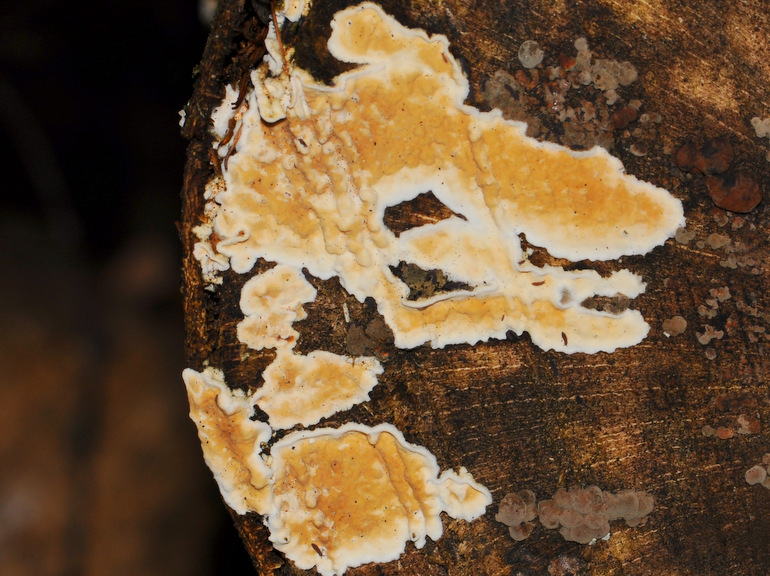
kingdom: Fungi
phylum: Basidiomycota
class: Agaricomycetes
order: Agaricales
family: Physalacriaceae
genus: Cylindrobasidium
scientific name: Cylindrobasidium evolvens
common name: sprækkehinde
